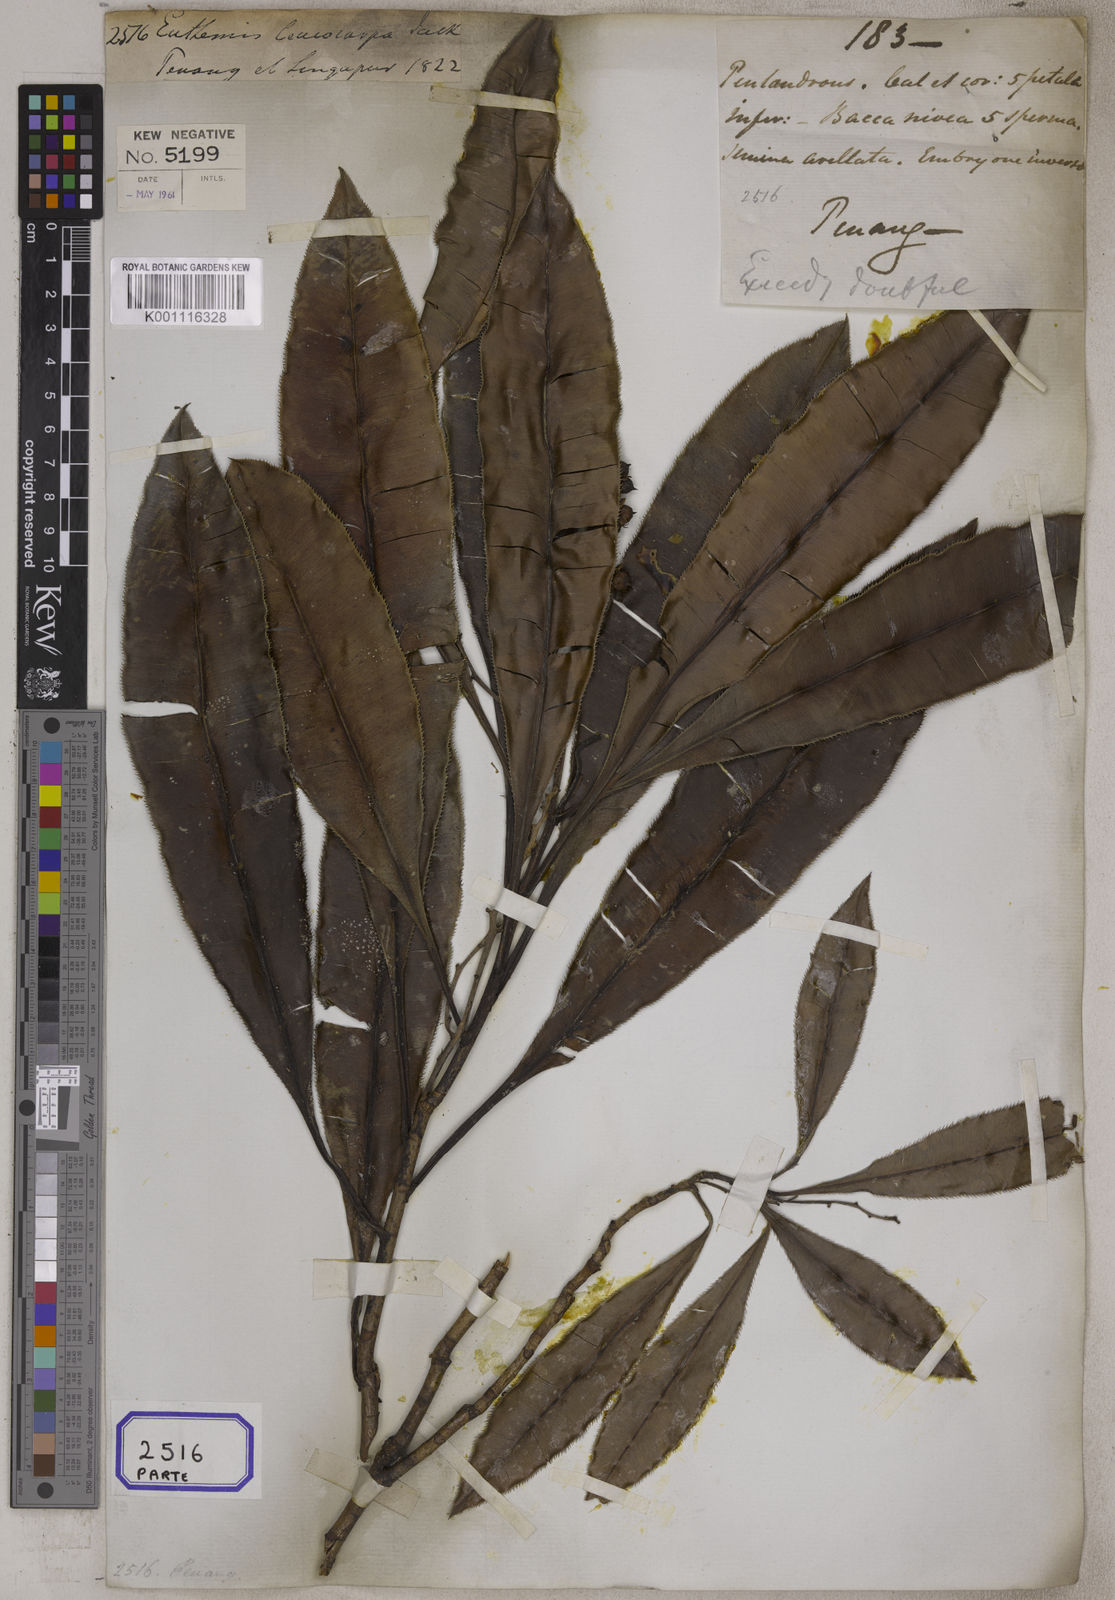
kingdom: Plantae
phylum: Tracheophyta
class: Magnoliopsida
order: Malpighiales
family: Ochnaceae
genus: Euthemis
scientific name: Euthemis leucocarpa
